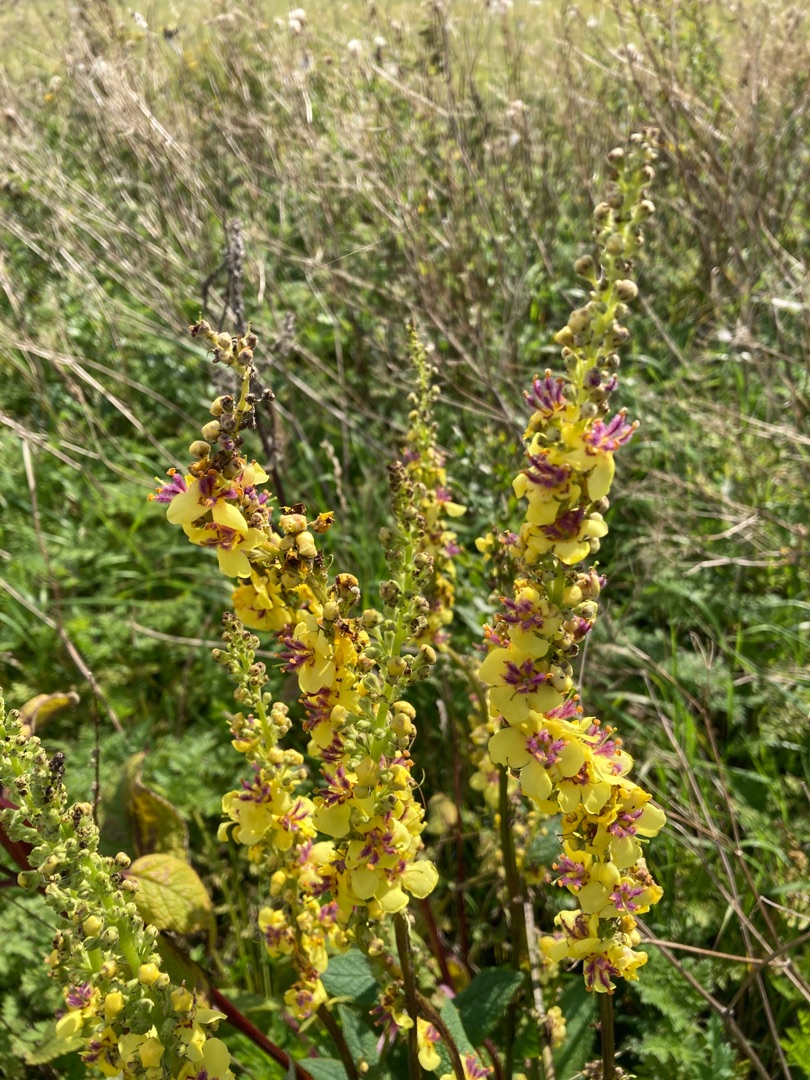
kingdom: Plantae
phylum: Tracheophyta
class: Magnoliopsida
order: Lamiales
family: Scrophulariaceae
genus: Verbascum
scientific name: Verbascum nigrum
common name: Mørk kongelys
